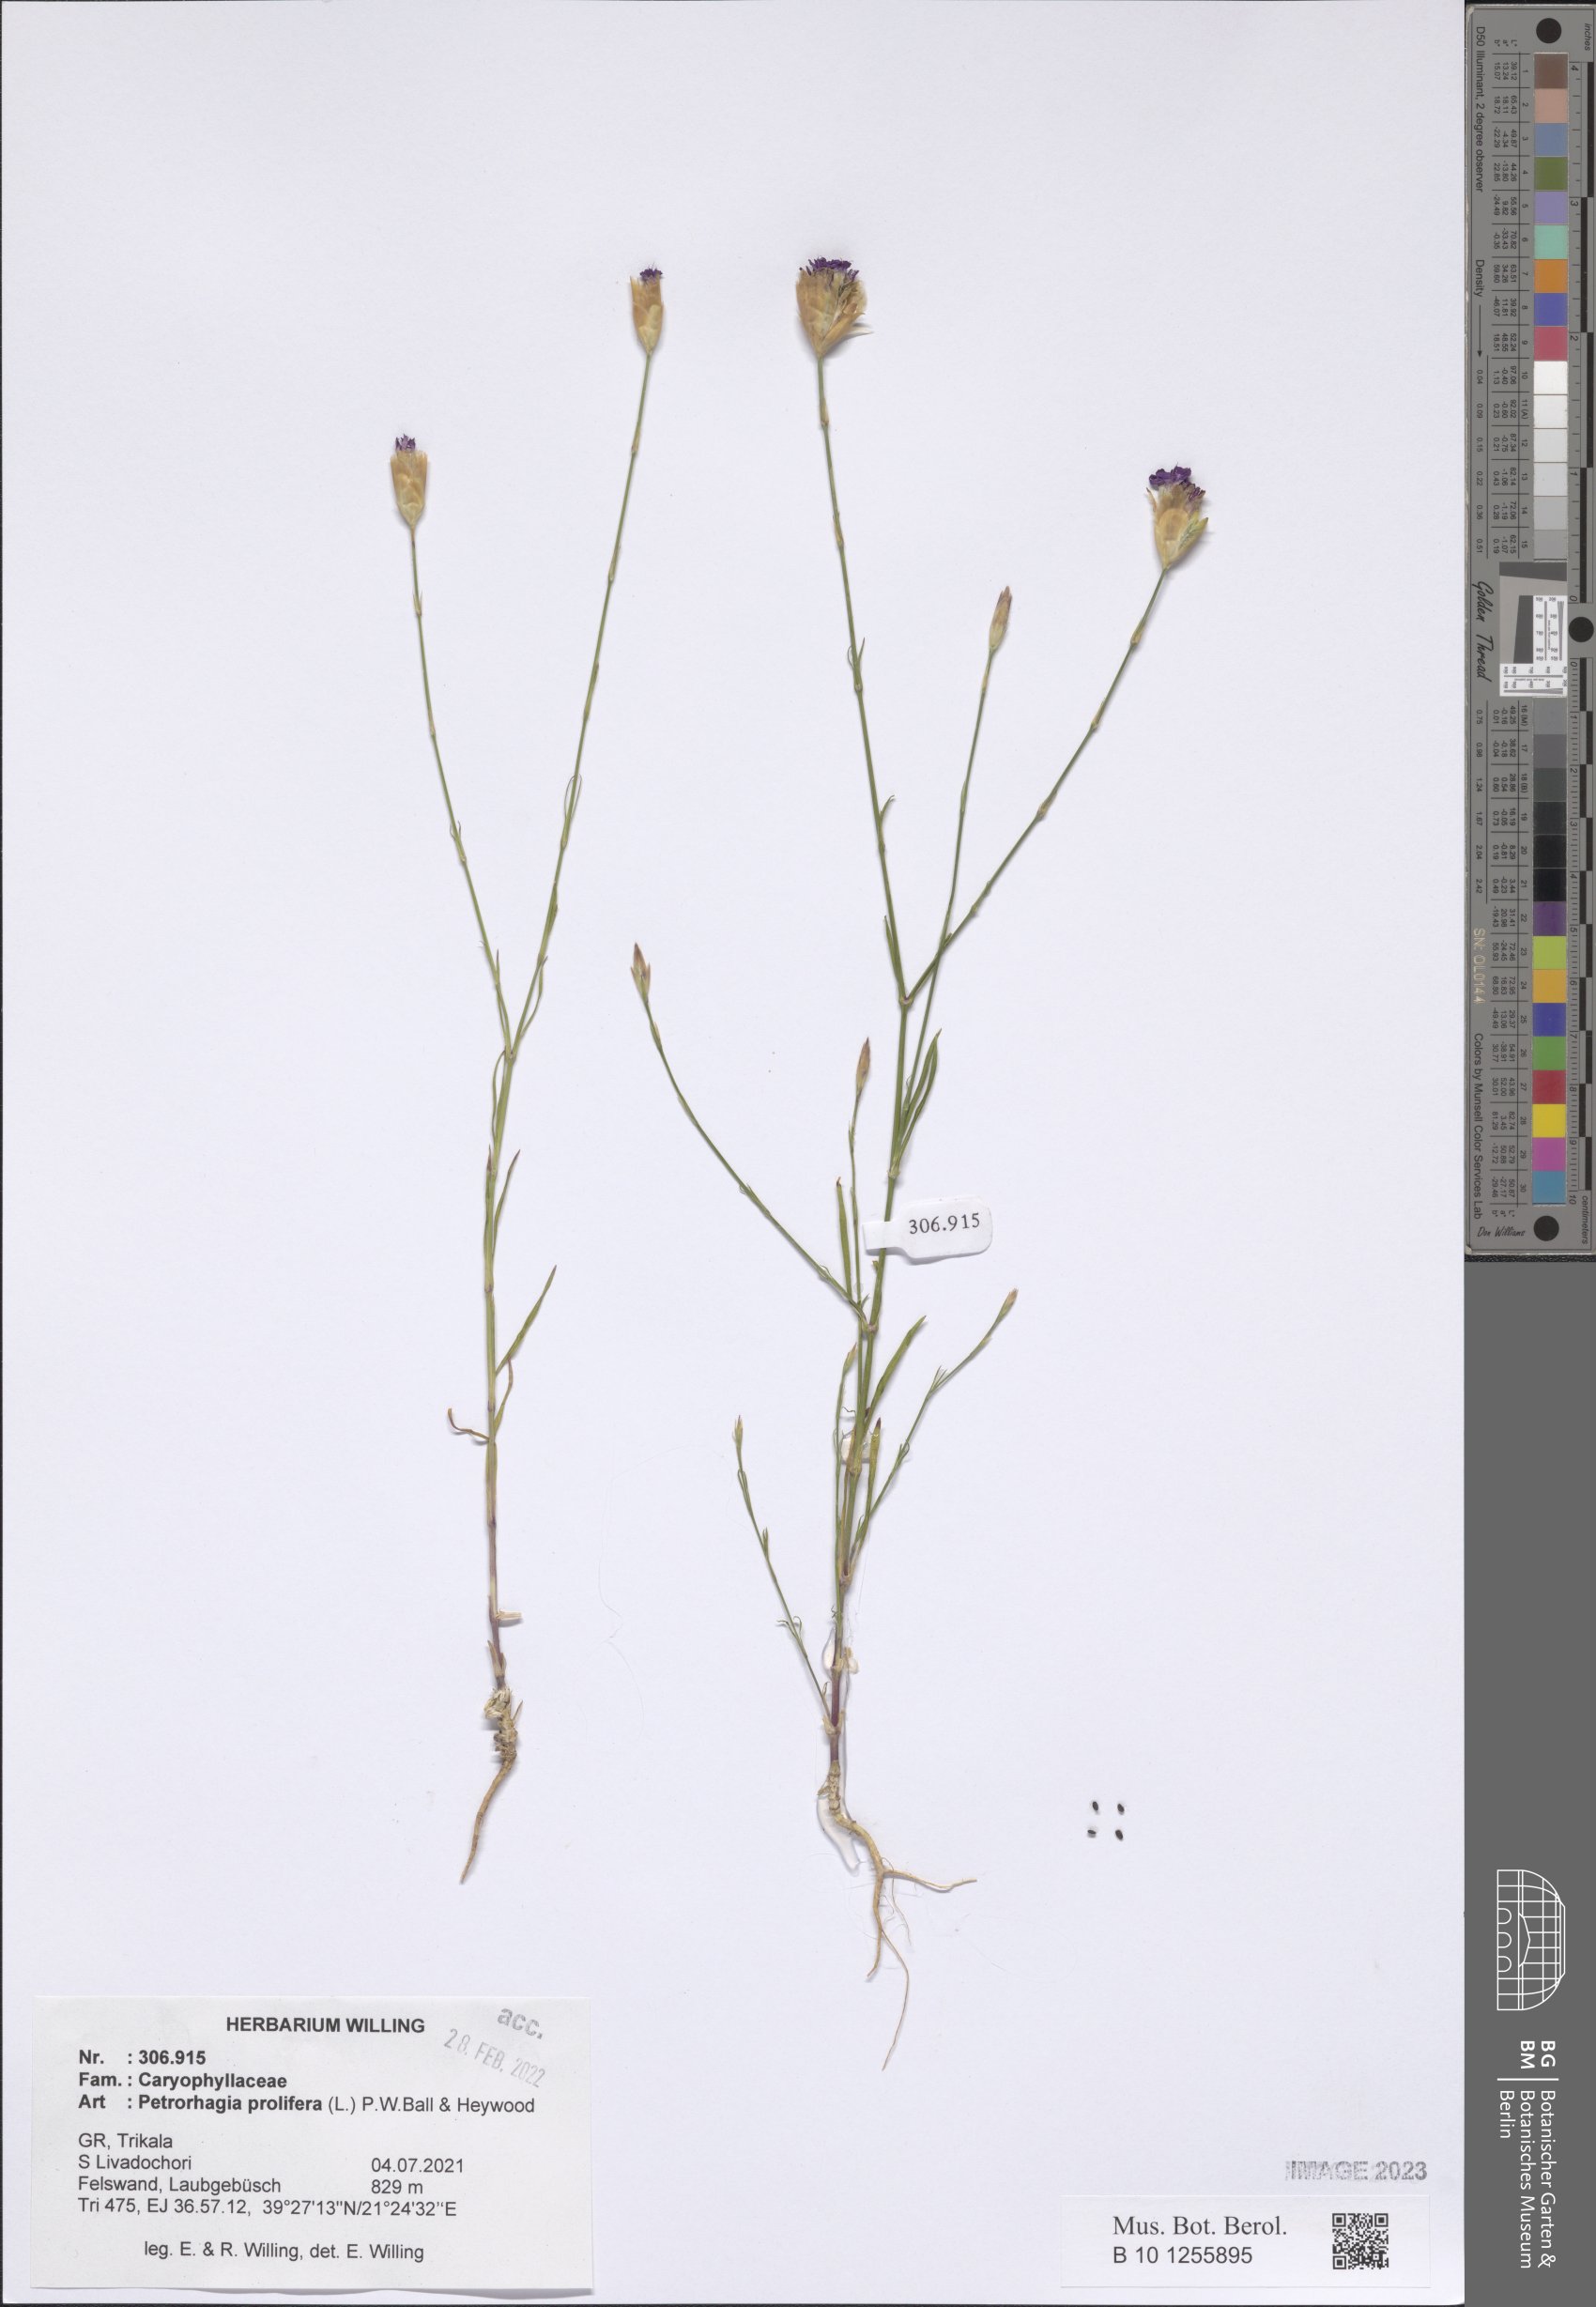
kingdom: Plantae
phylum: Tracheophyta
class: Magnoliopsida
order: Caryophyllales
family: Caryophyllaceae
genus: Petrorhagia
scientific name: Petrorhagia prolifera
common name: Proliferous pink
